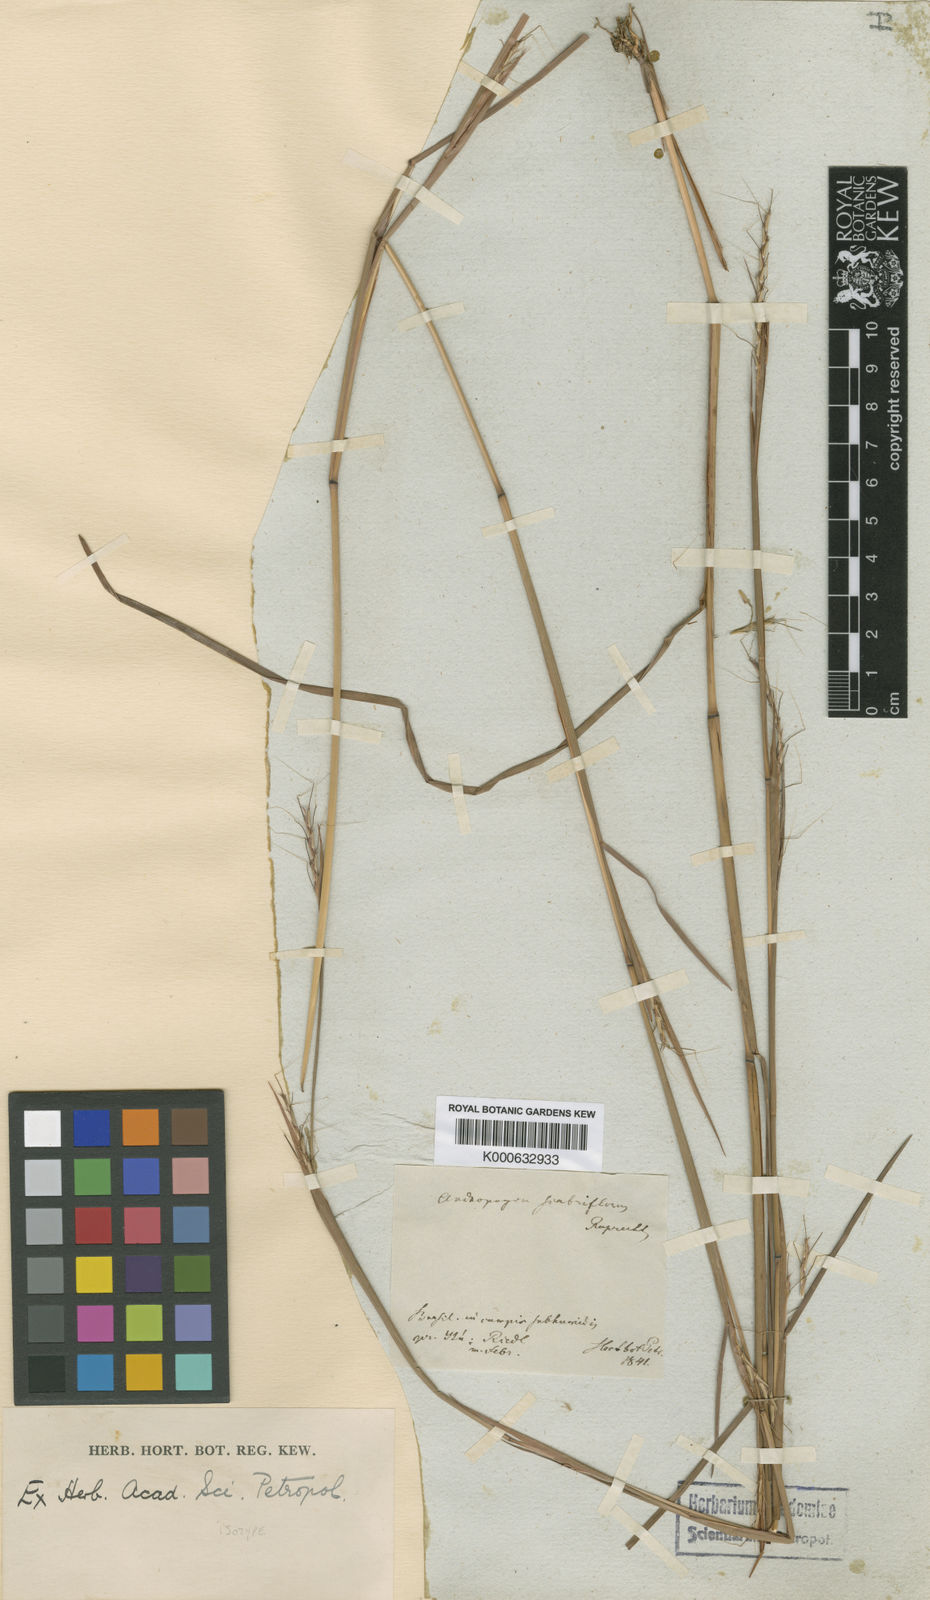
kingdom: Plantae
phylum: Tracheophyta
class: Liliopsida
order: Poales
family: Poaceae
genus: Schizachyrium
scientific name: Schizachyrium scabriflorum
